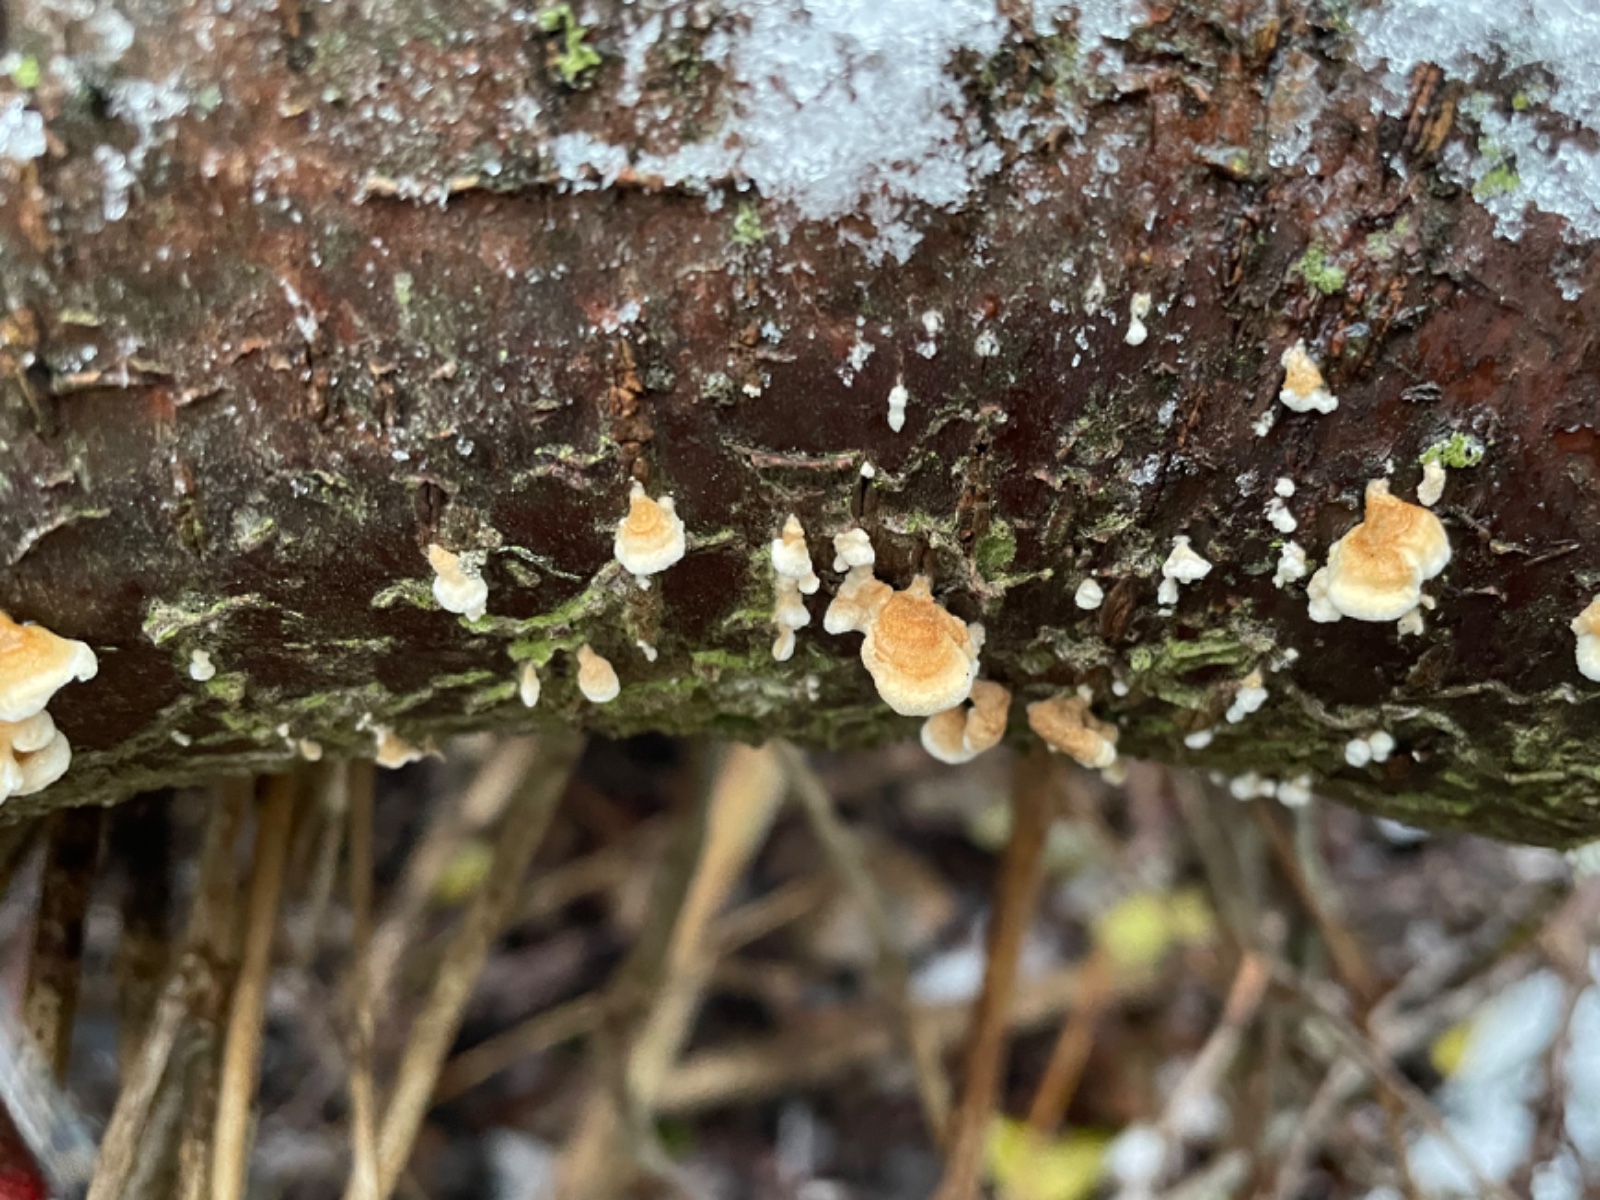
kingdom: Fungi
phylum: Basidiomycota
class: Agaricomycetes
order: Amylocorticiales
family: Amylocorticiaceae
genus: Plicaturopsis
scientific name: Plicaturopsis crispa
